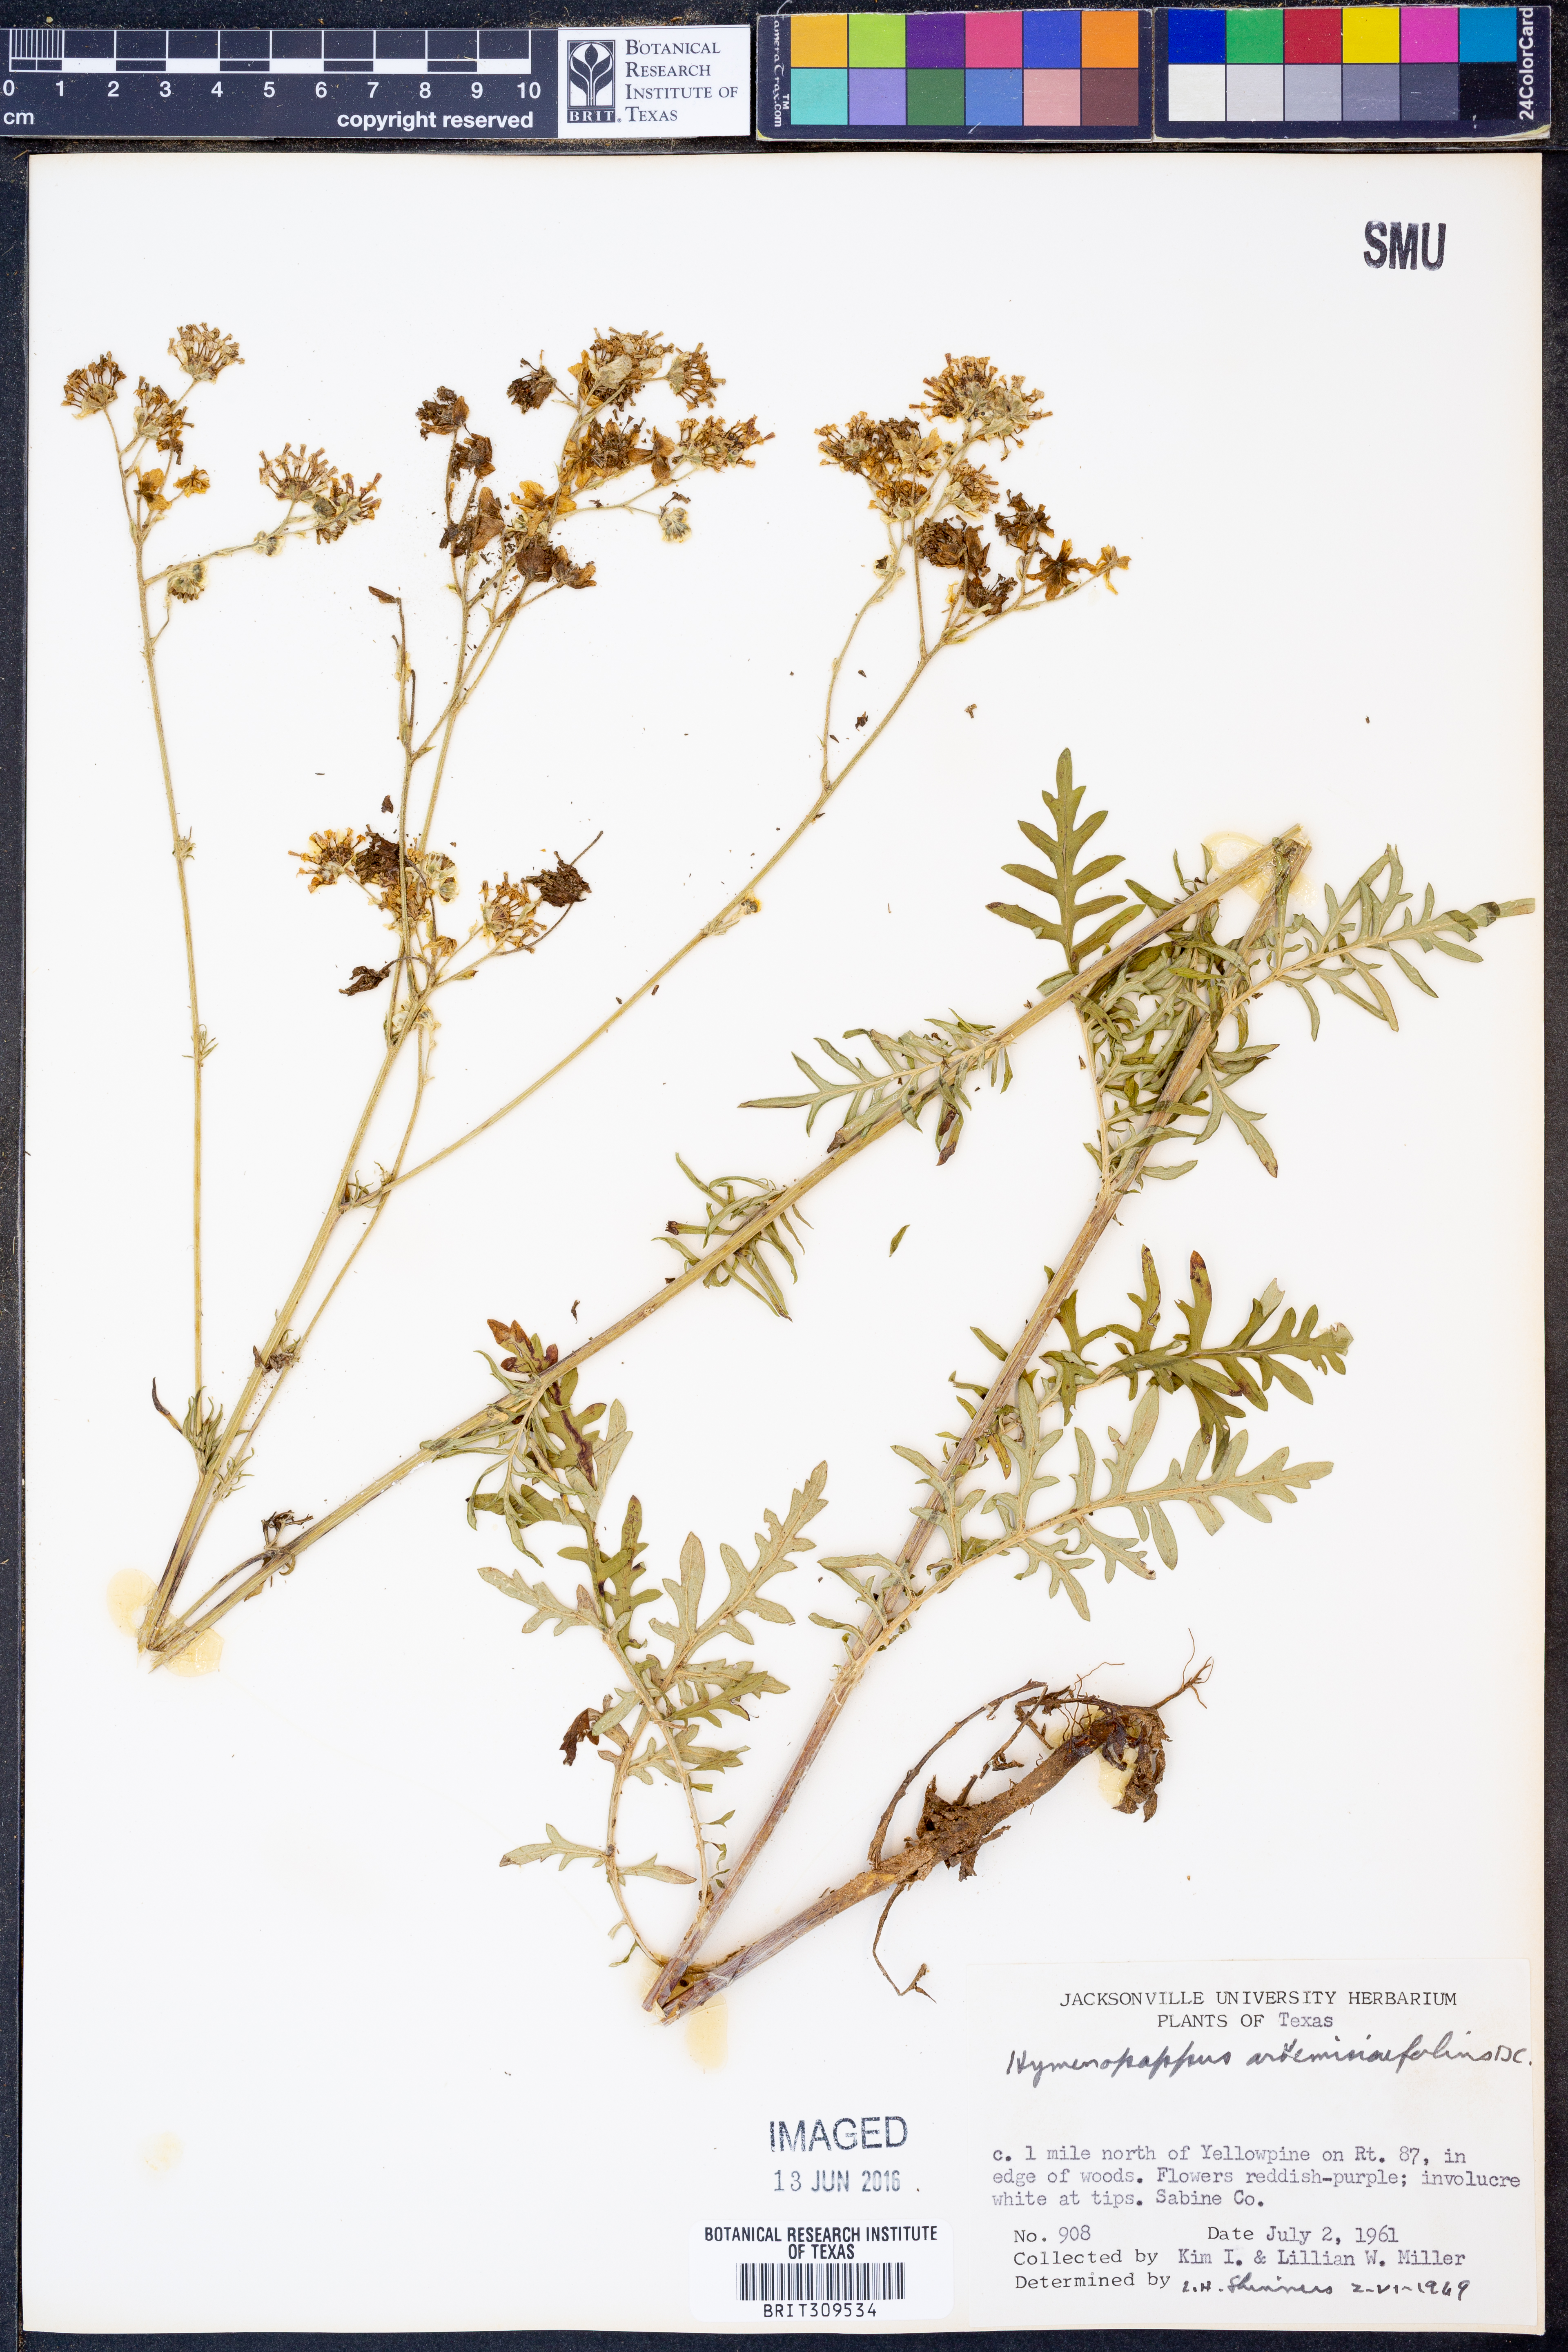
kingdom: Plantae
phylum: Tracheophyta
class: Magnoliopsida
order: Asterales
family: Asteraceae
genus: Hymenopappus
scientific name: Hymenopappus artemisiifolius
